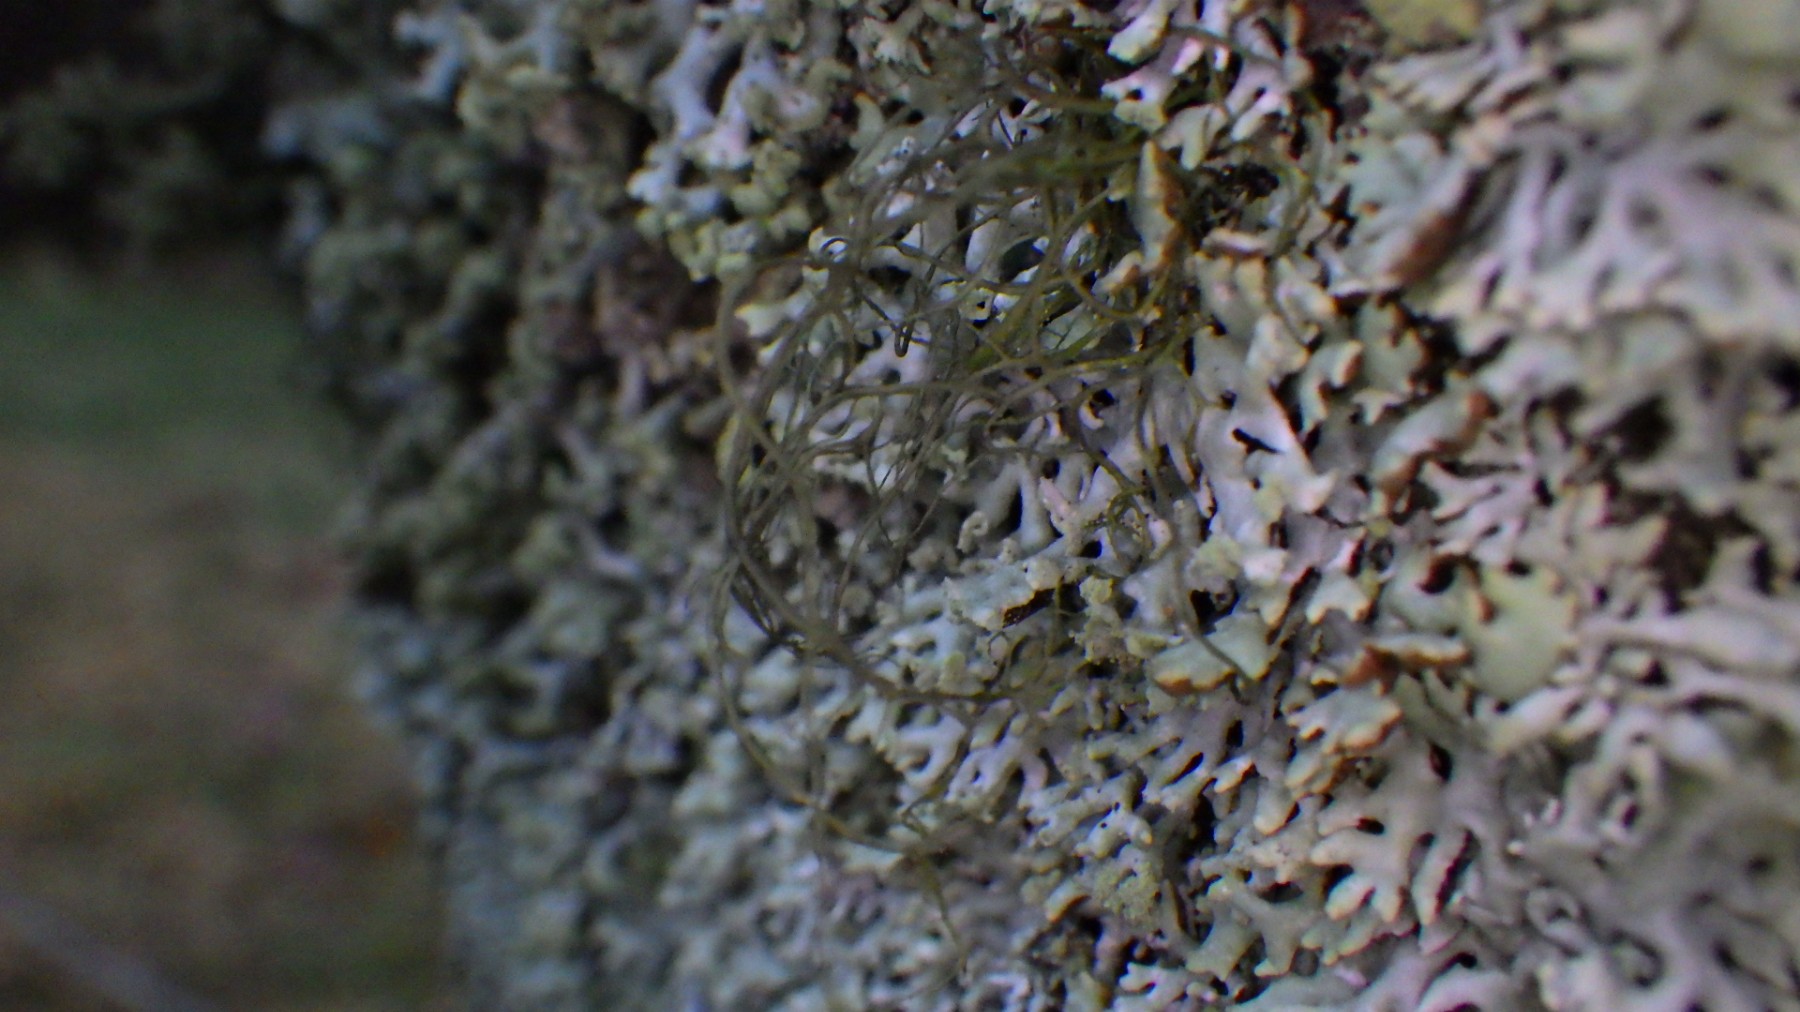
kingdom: Fungi
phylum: Ascomycota
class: Lecanoromycetes
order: Lecanorales
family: Parmeliaceae
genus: Bryoria
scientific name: Bryoria
